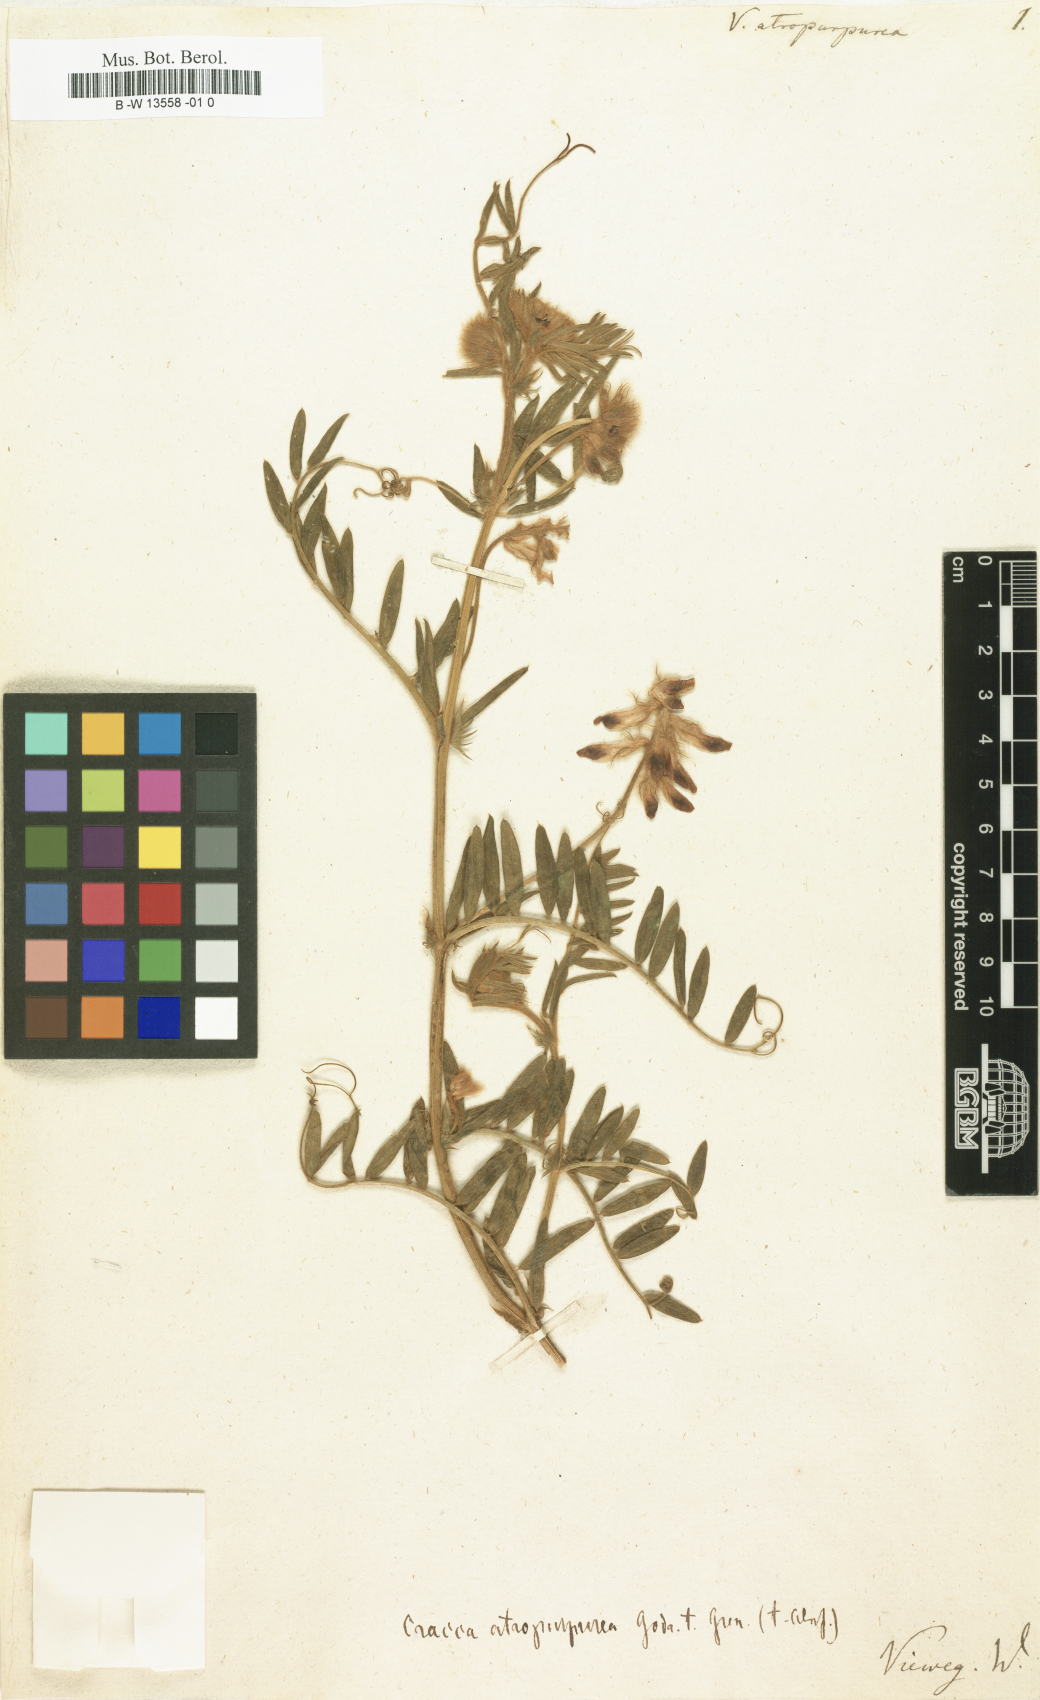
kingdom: Plantae
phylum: Tracheophyta
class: Magnoliopsida
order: Fabales
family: Fabaceae
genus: Vicia
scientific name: Vicia benghalensis
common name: Purple vetch
